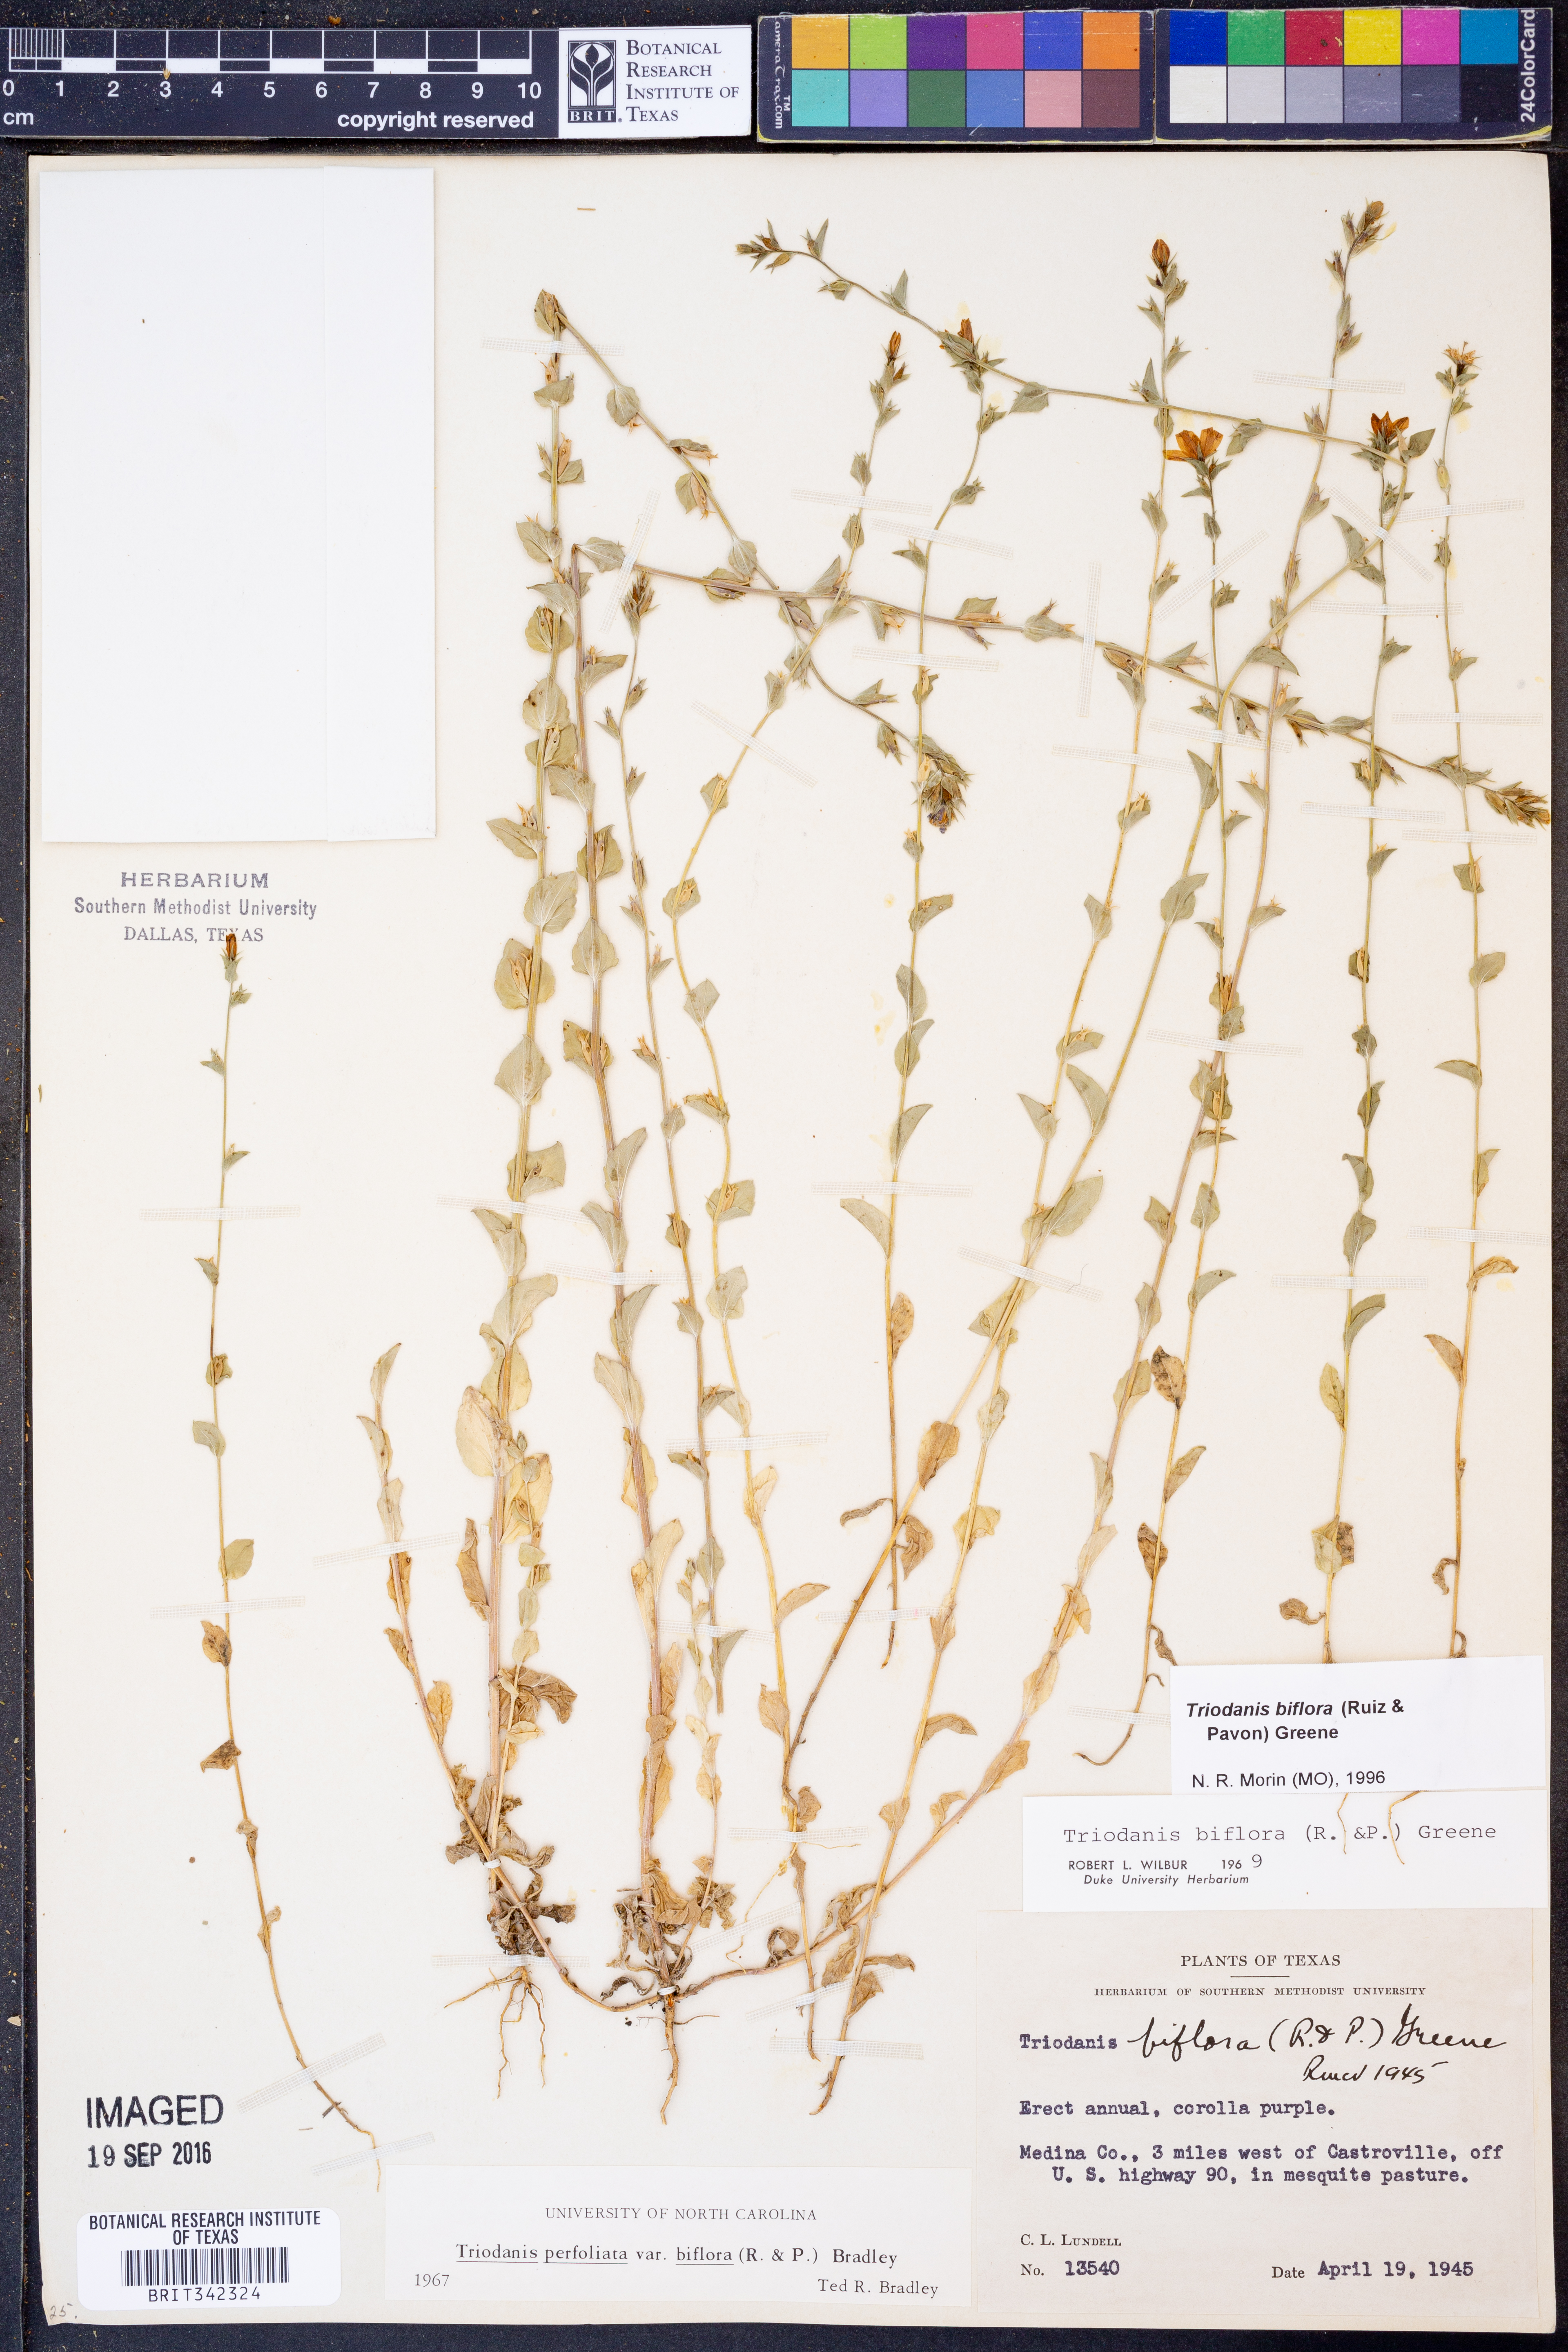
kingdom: Plantae
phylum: Tracheophyta
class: Magnoliopsida
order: Asterales
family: Campanulaceae
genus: Triodanis
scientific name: Triodanis perfoliata
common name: Clasping venus' looking-glass
